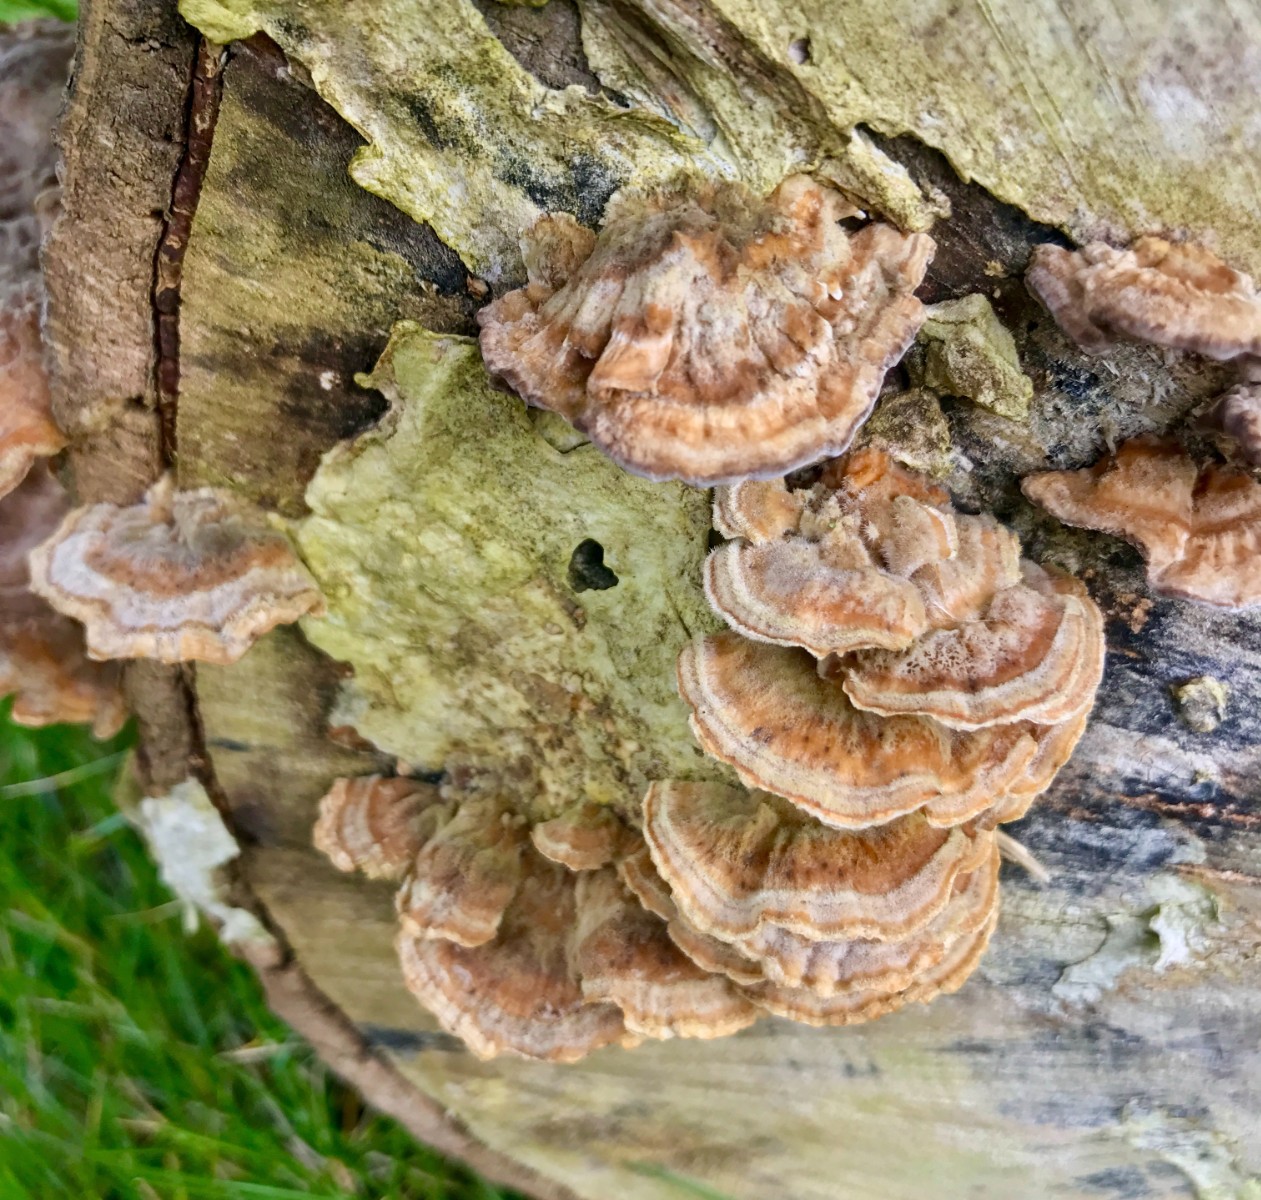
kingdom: Fungi
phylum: Basidiomycota
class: Agaricomycetes
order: Polyporales
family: Polyporaceae
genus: Trametes
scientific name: Trametes ochracea
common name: bæltet læderporesvamp
